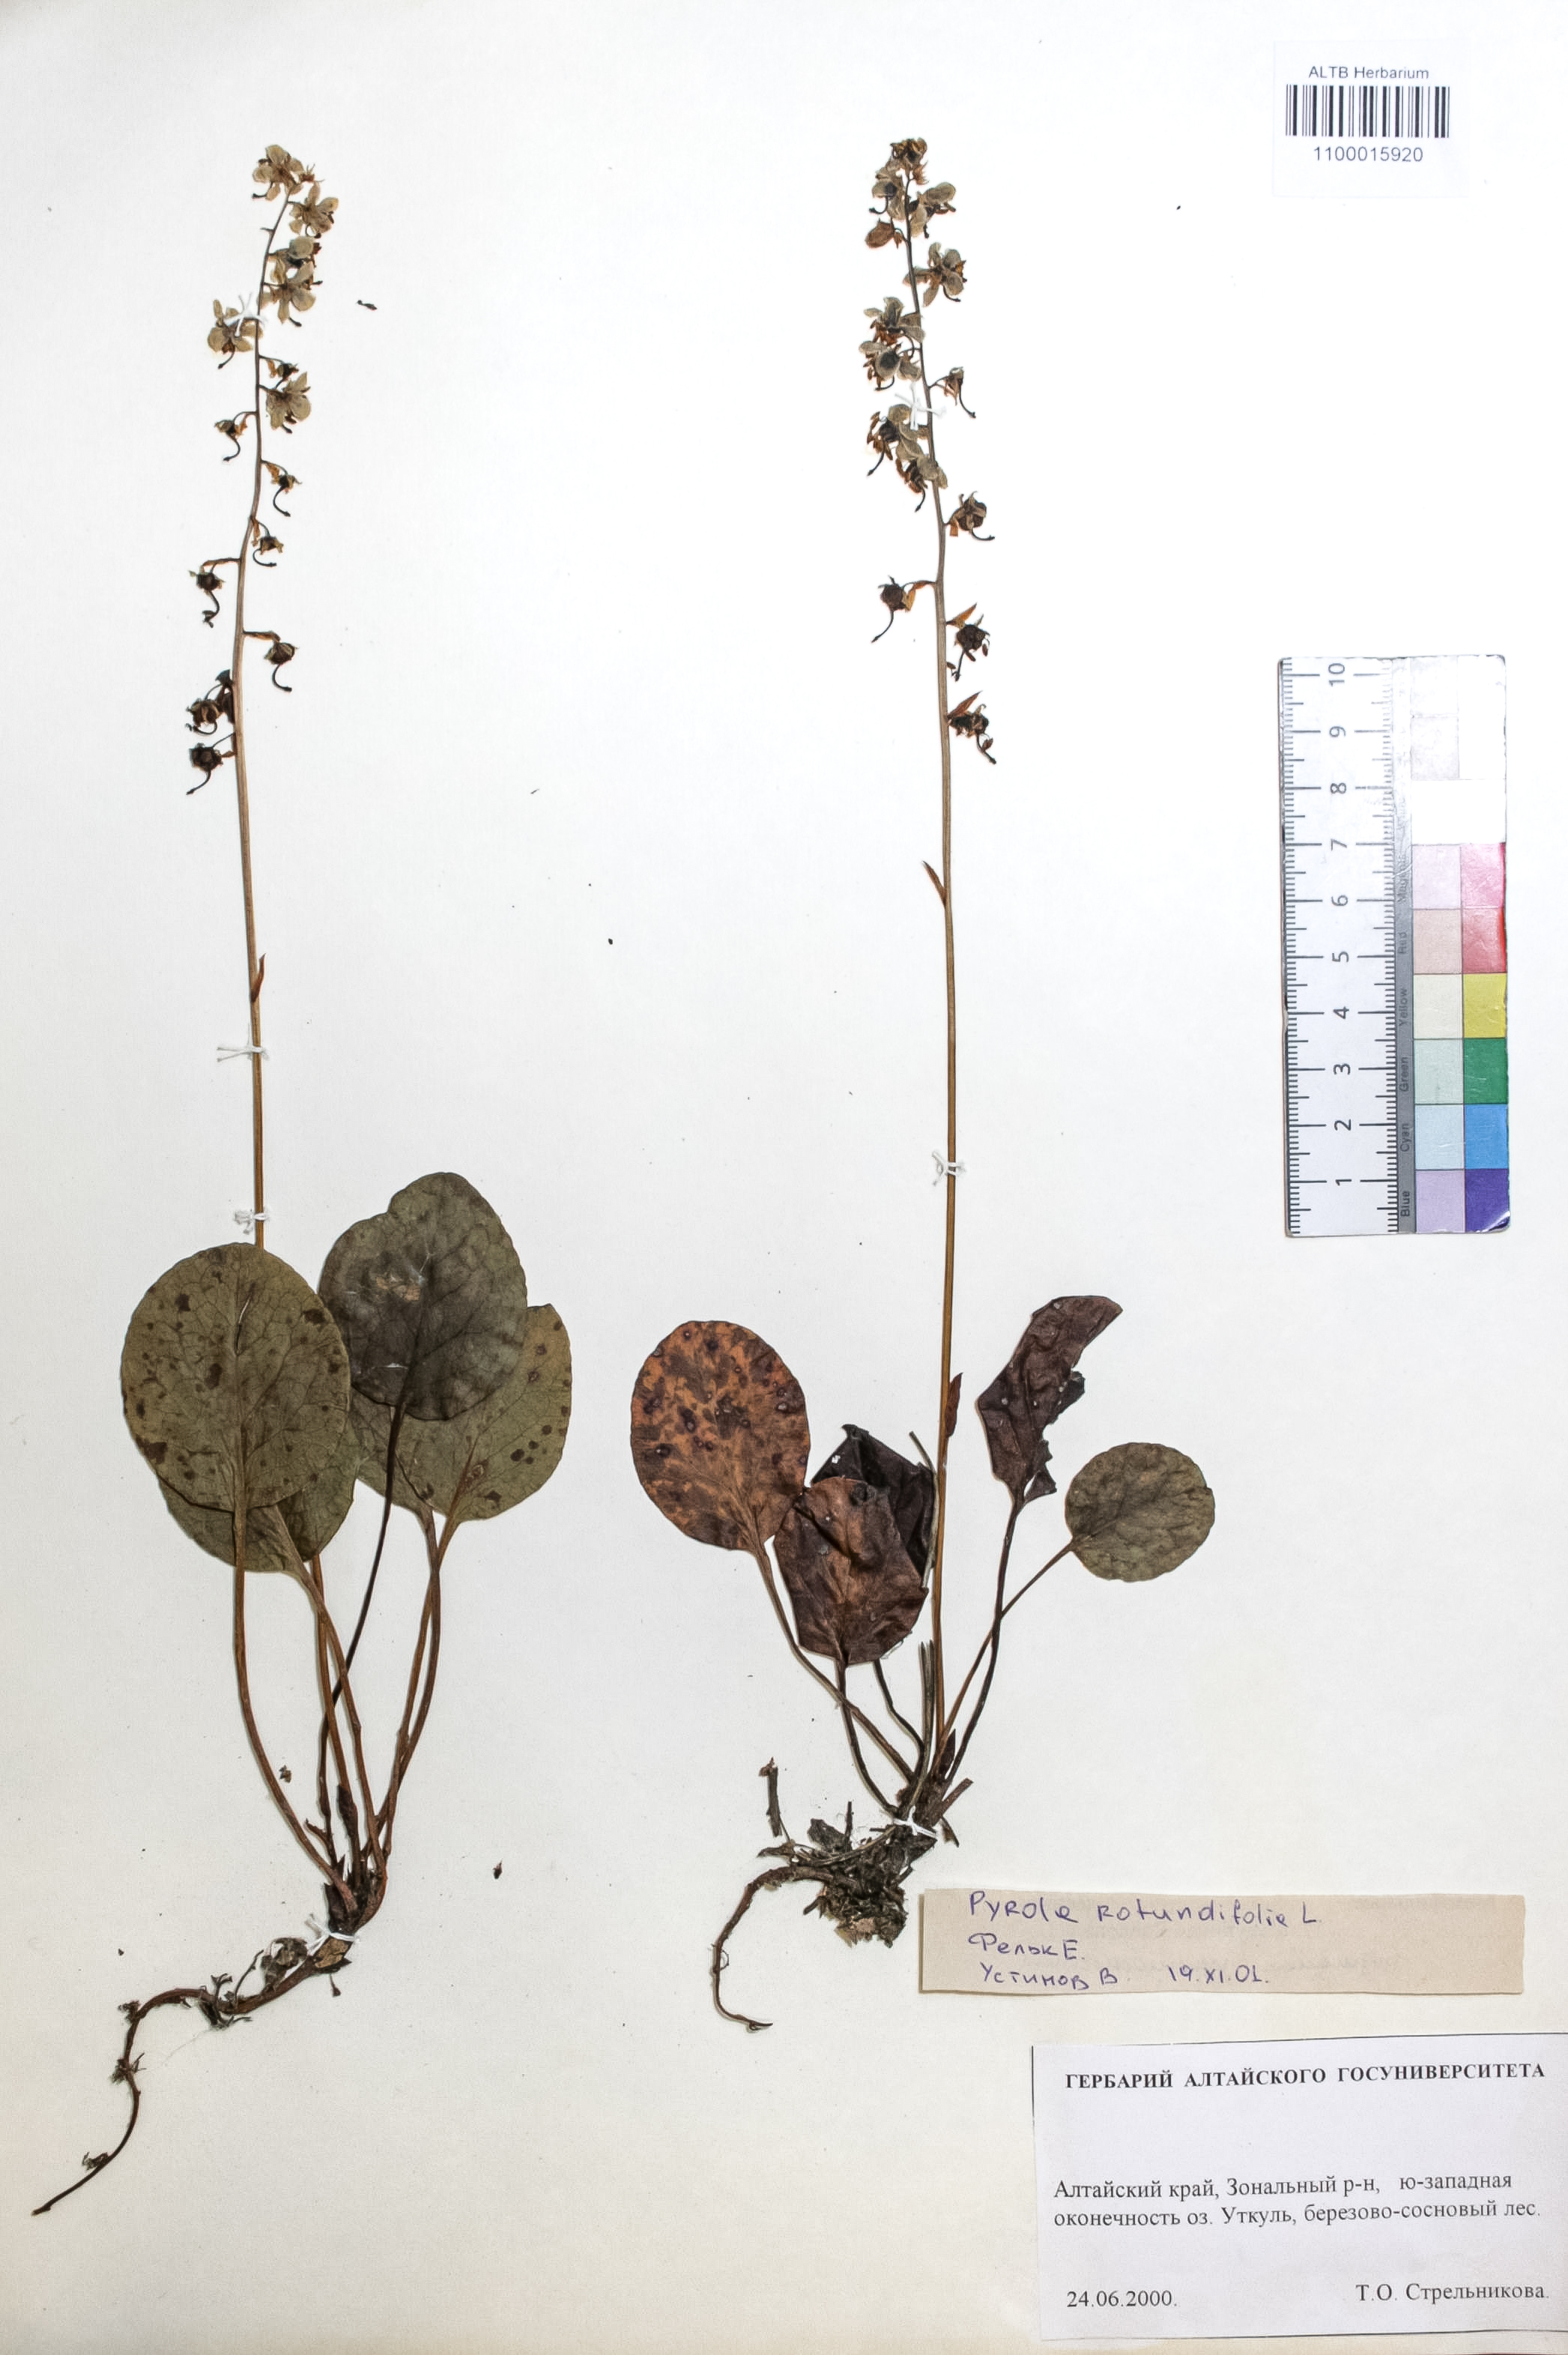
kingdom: Plantae
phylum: Tracheophyta
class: Magnoliopsida
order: Ericales
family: Ericaceae
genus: Pyrola
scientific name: Pyrola rotundifolia
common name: Round-leaved wintergreen
